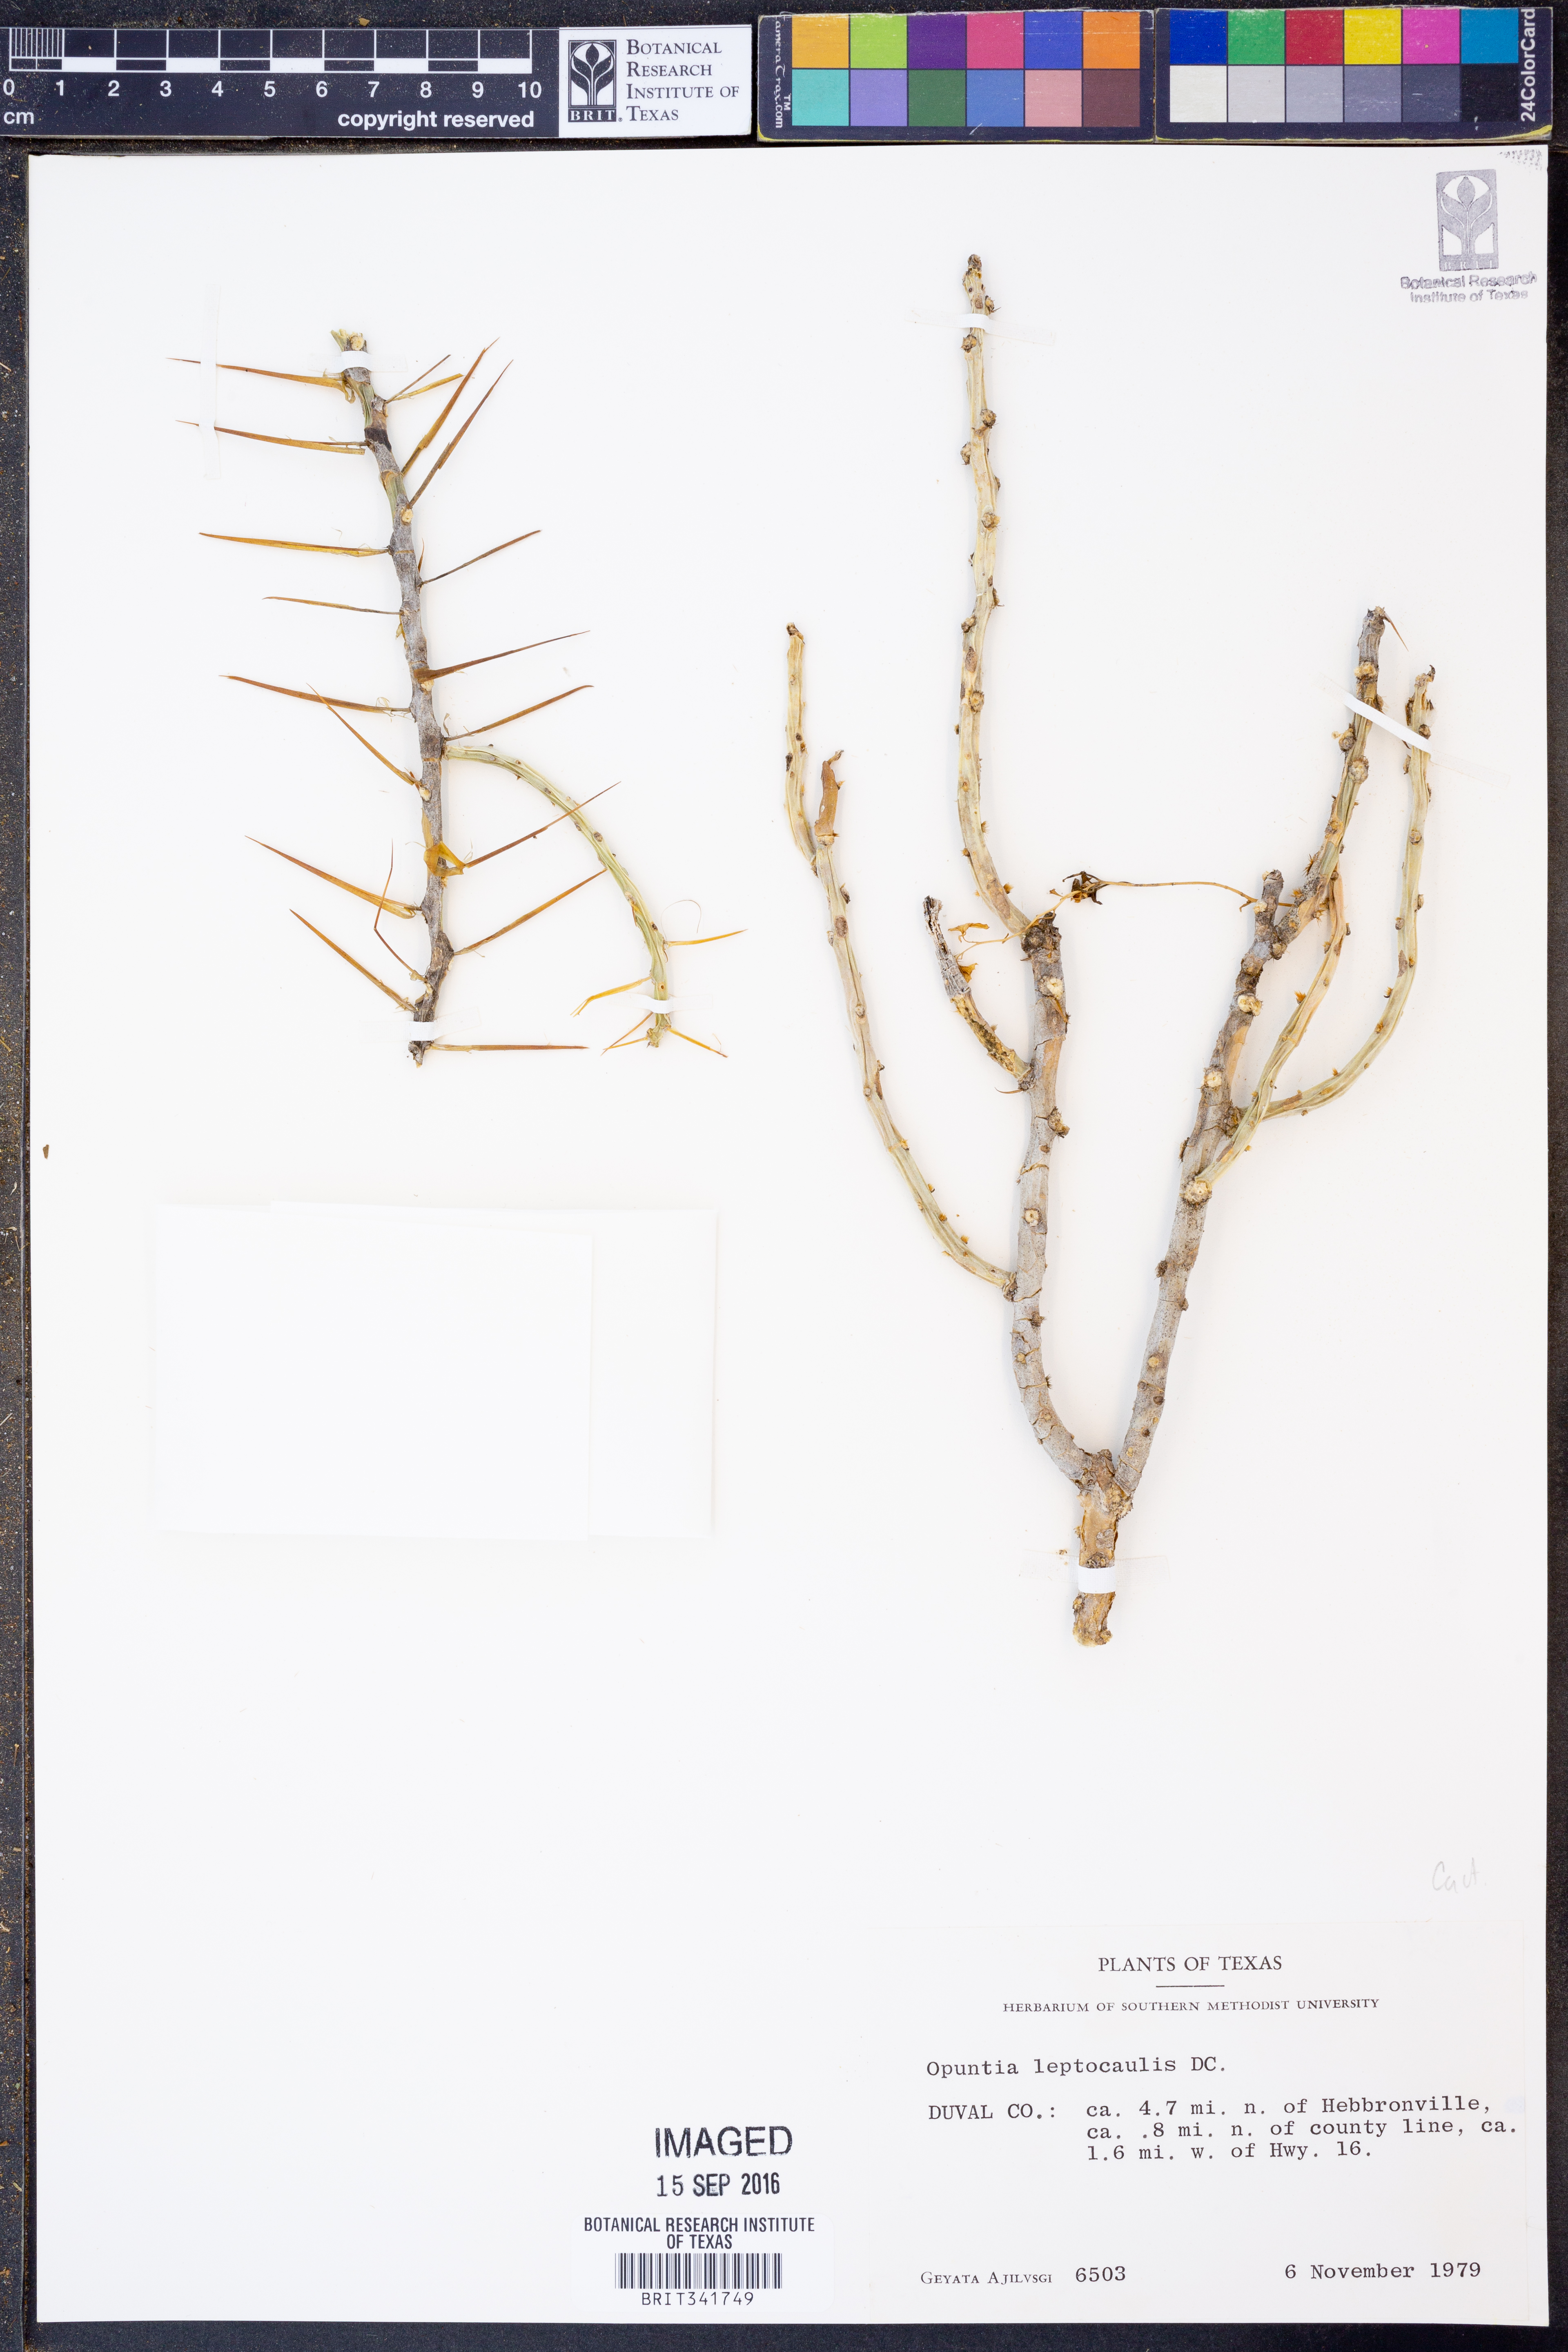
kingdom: Plantae
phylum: Tracheophyta
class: Magnoliopsida
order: Caryophyllales
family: Cactaceae
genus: Cylindropuntia
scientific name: Cylindropuntia leptocaulis
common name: Christmas cactus
